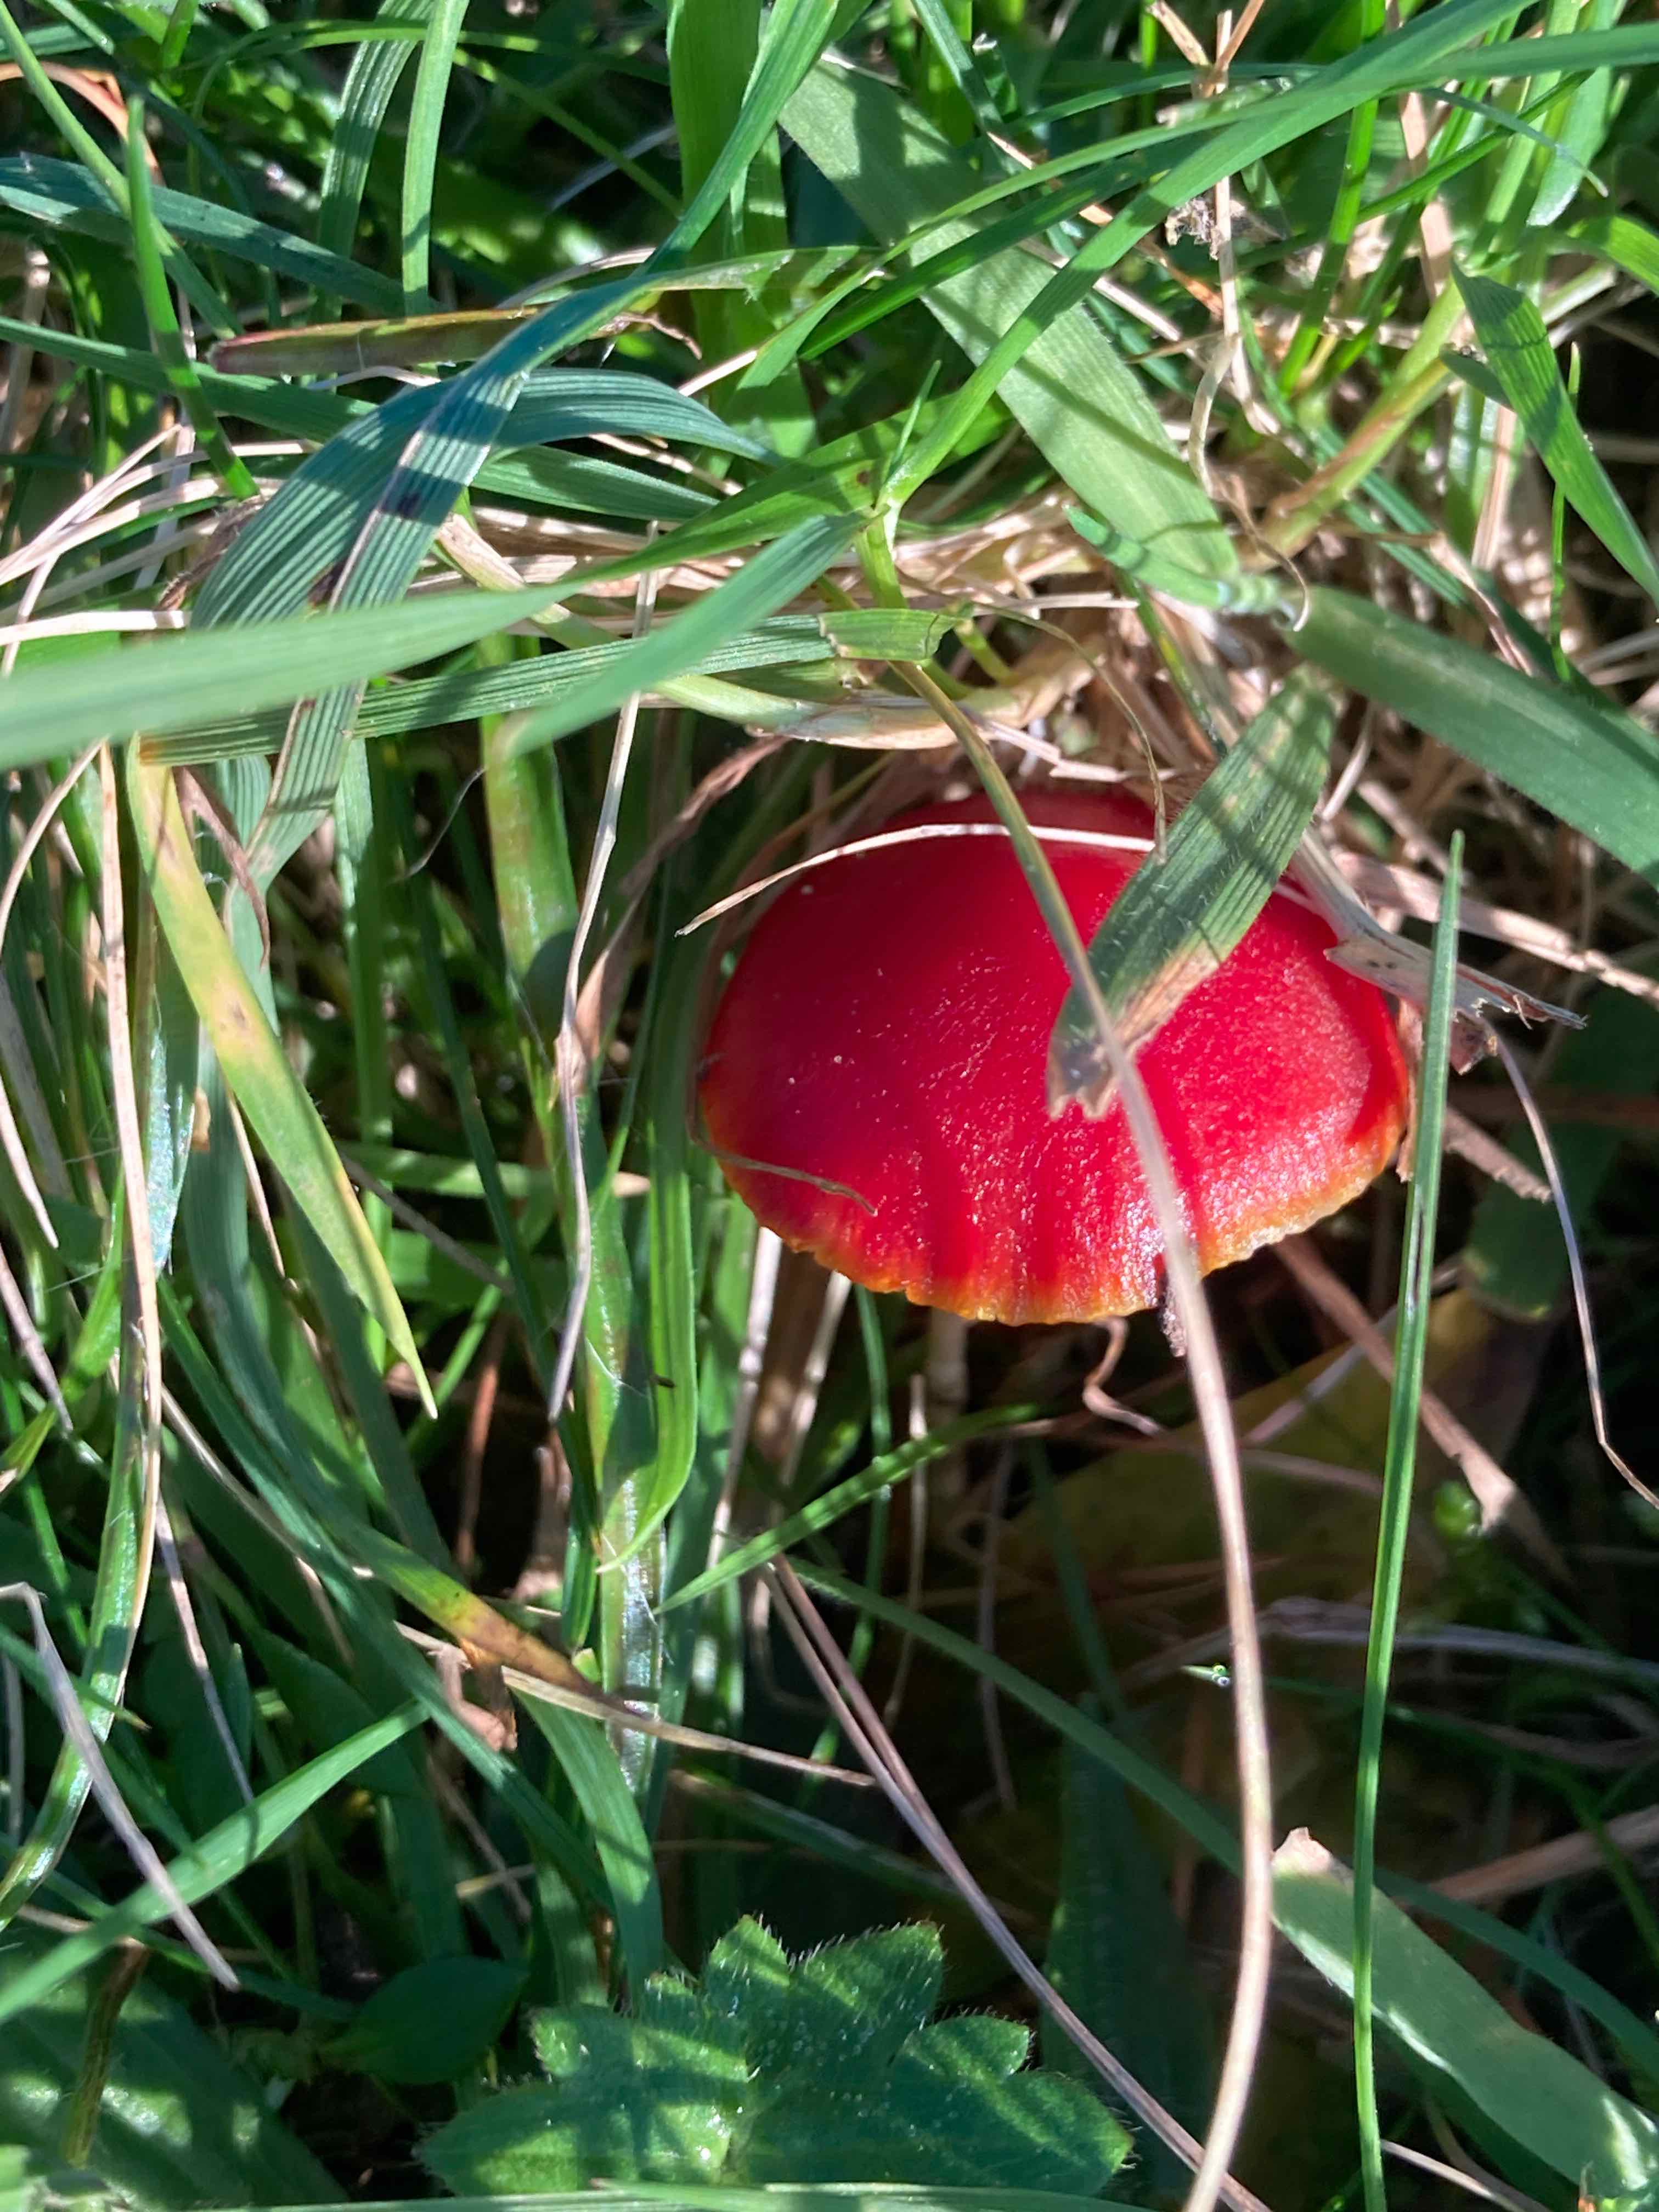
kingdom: Fungi
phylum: Basidiomycota
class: Agaricomycetes
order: Agaricales
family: Hygrophoraceae
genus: Hygrocybe
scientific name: Hygrocybe coccinea
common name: cinnober-vokshat
